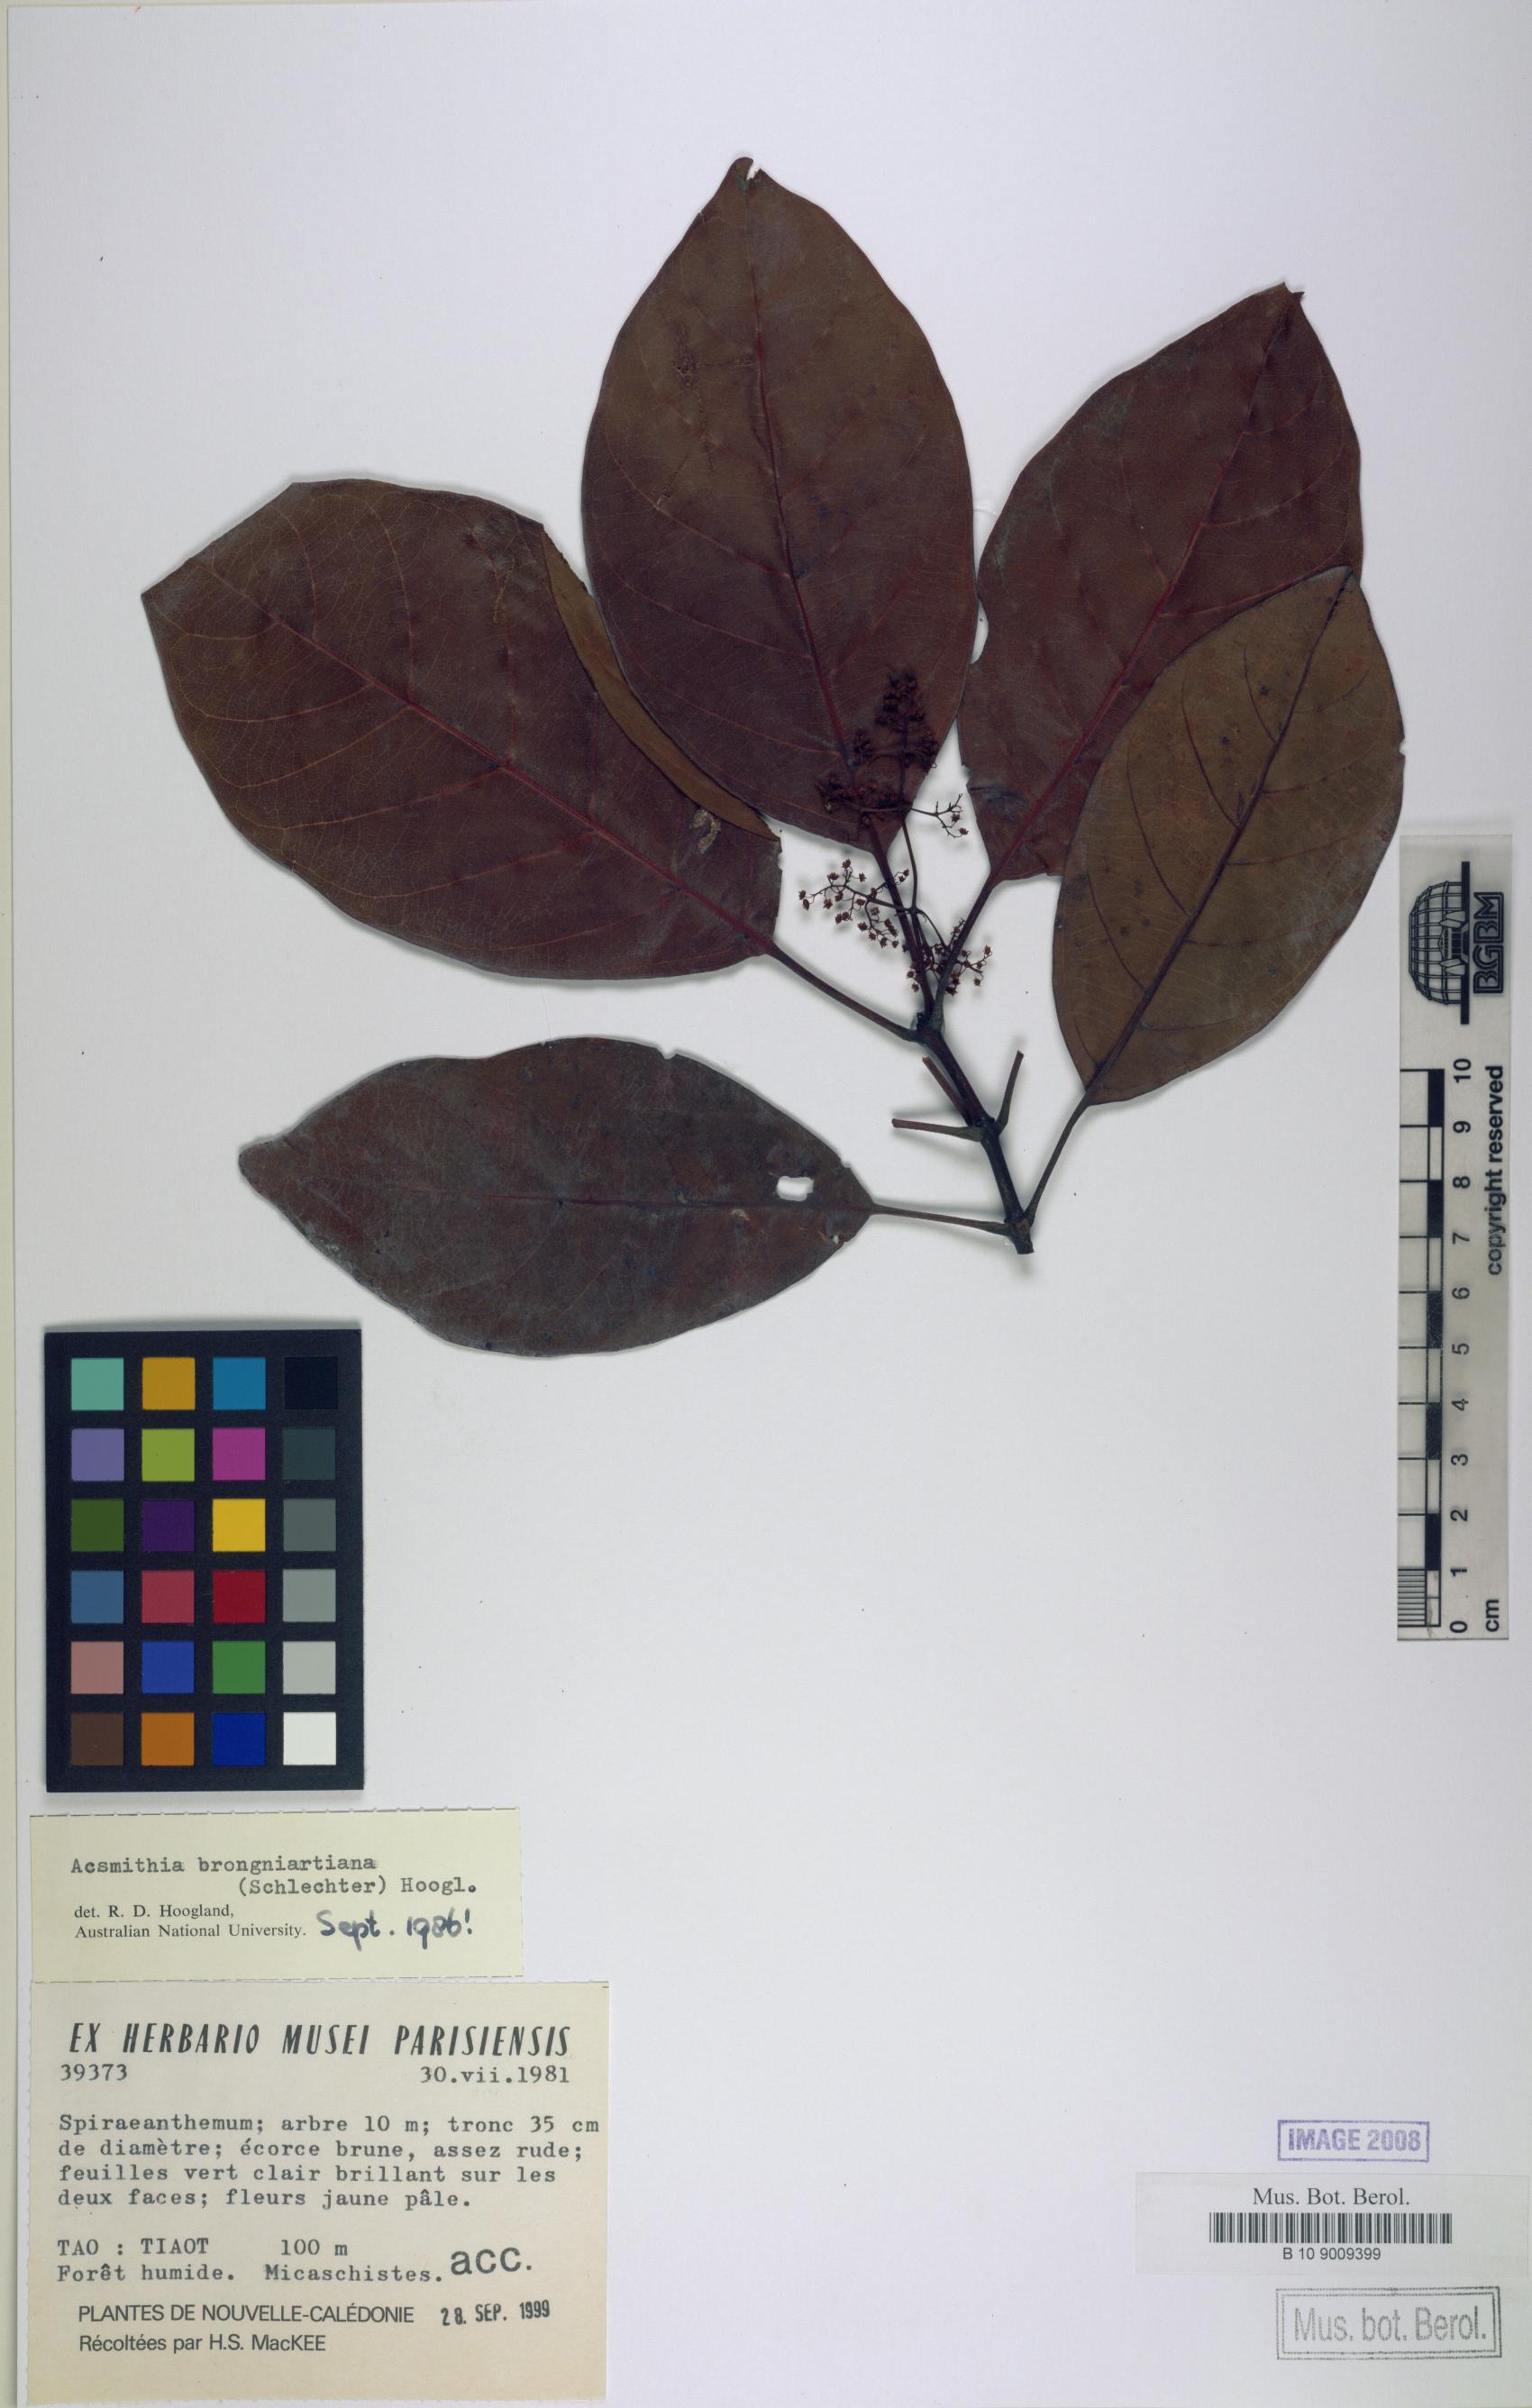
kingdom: Plantae
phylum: Tracheophyta
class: Magnoliopsida
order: Oxalidales
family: Cunoniaceae
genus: Spiraeanthemum
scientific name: Spiraeanthemum brongniartianum
